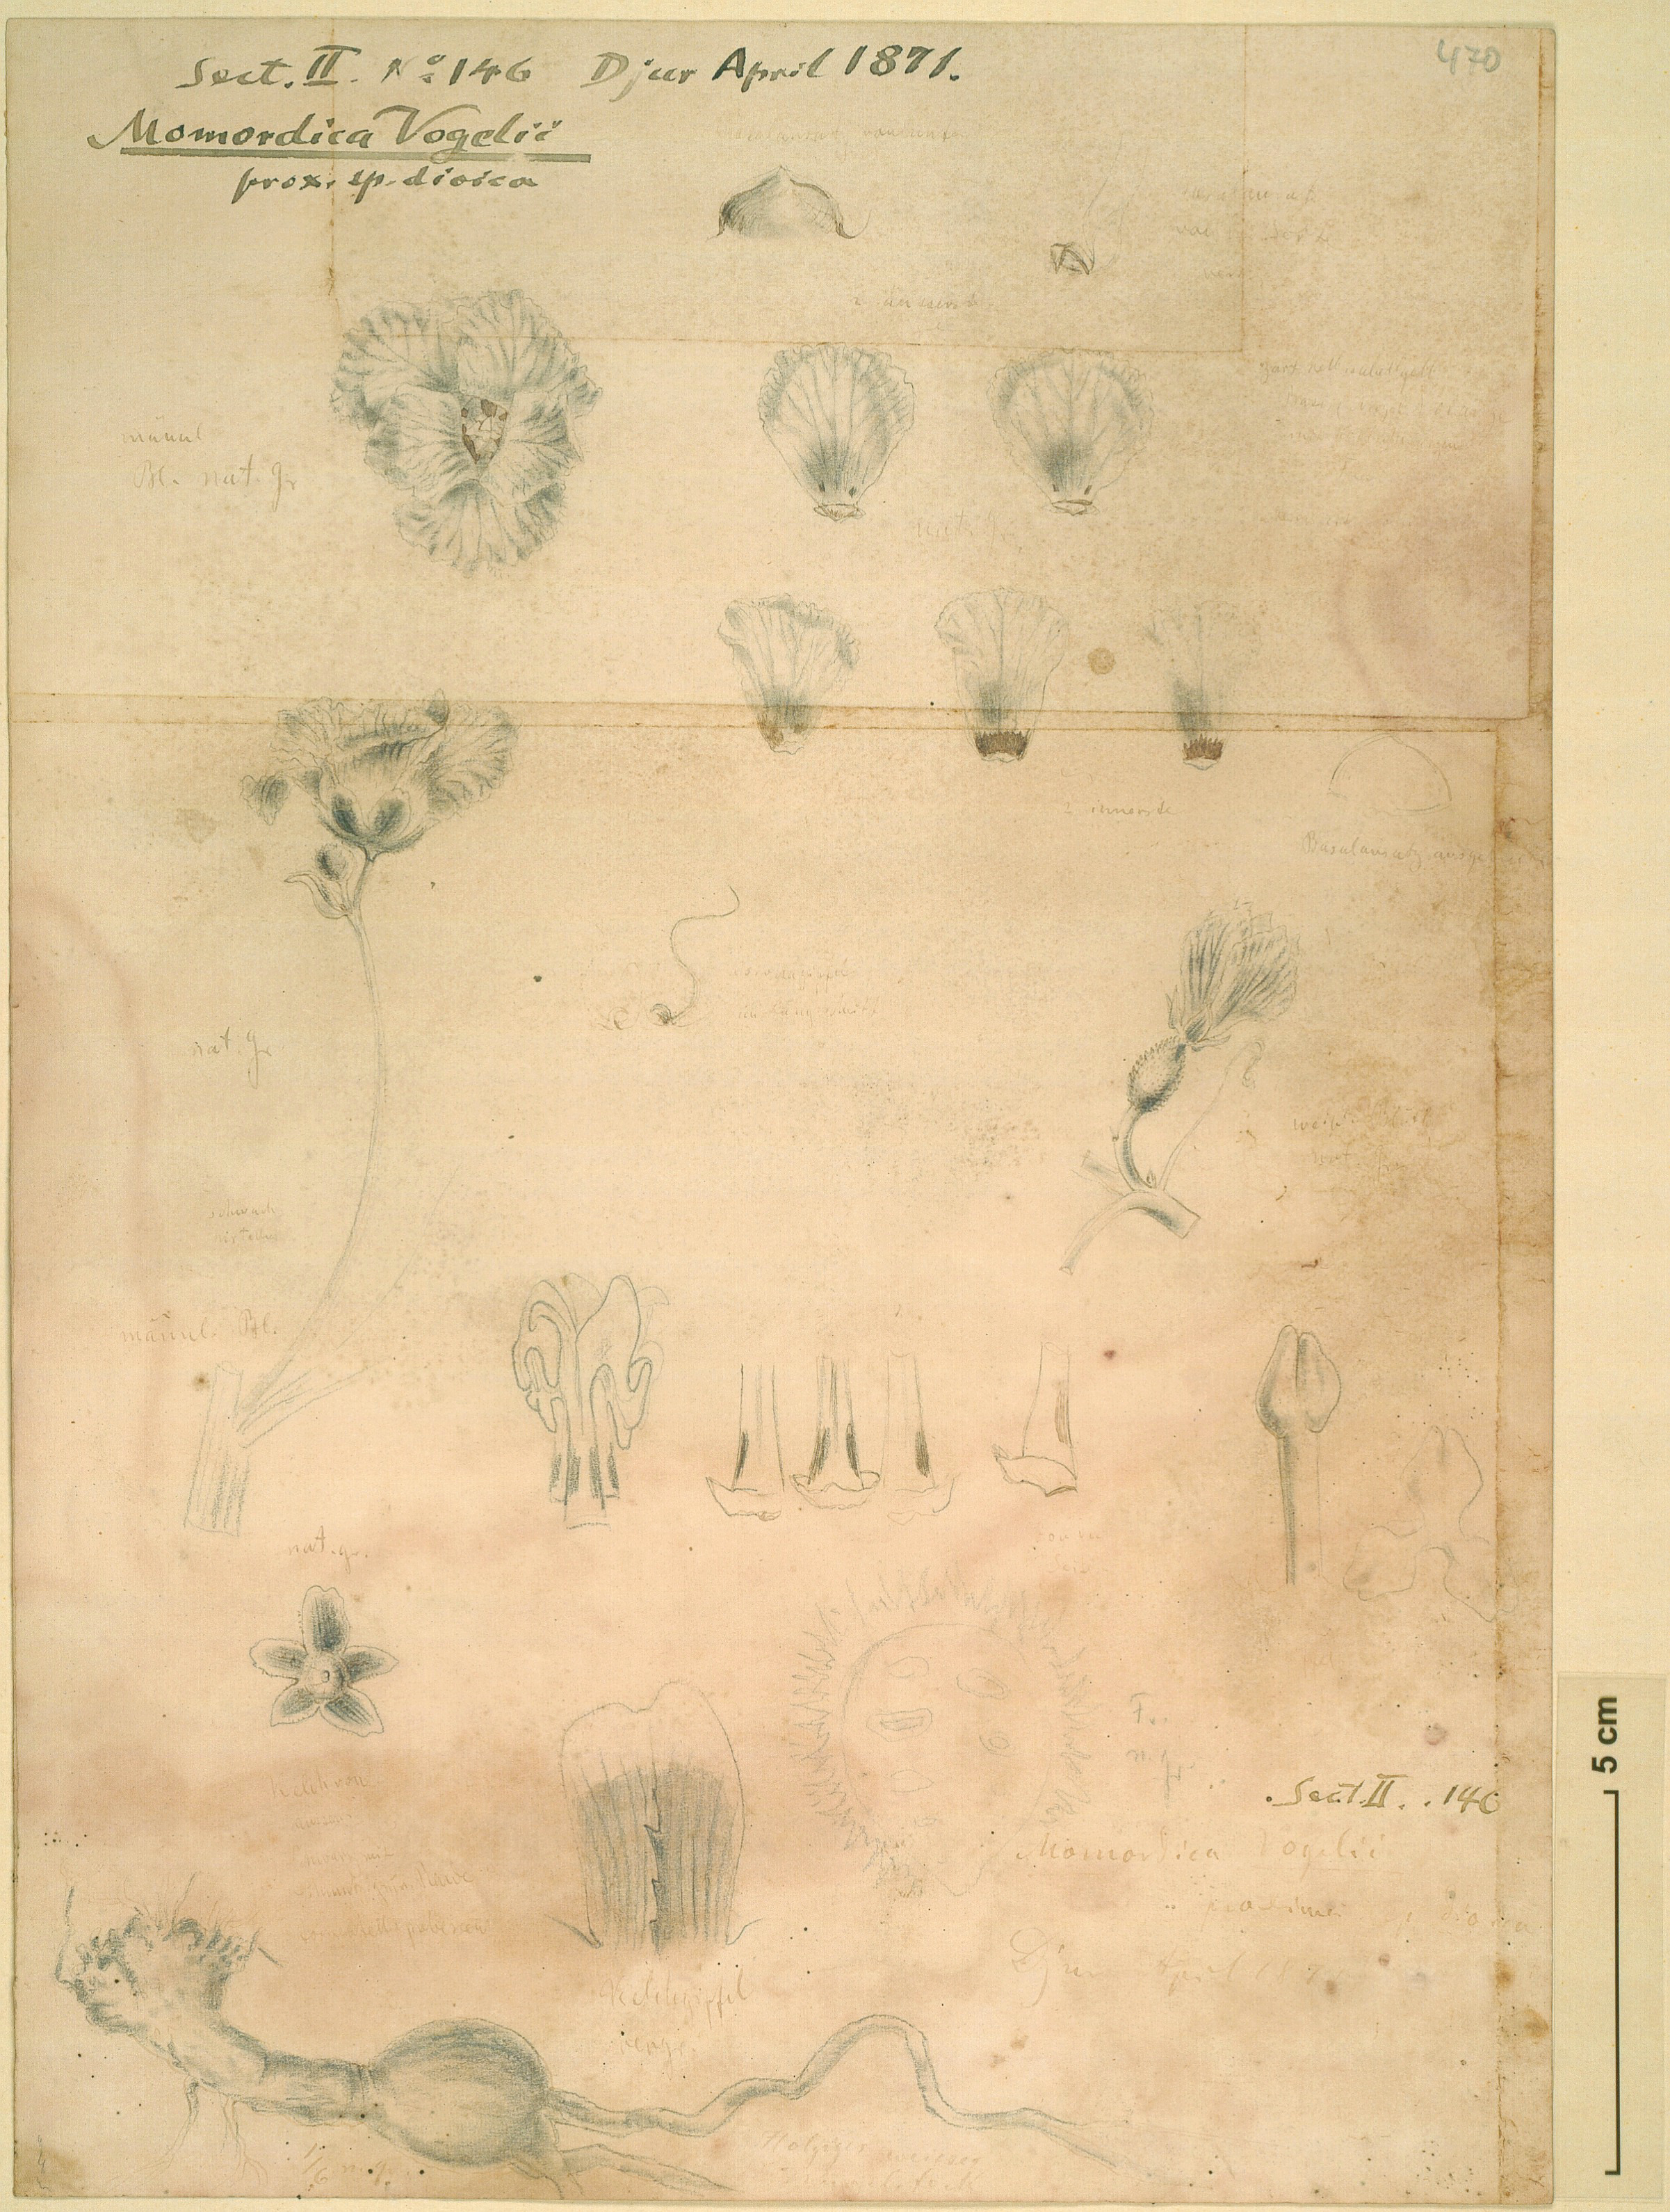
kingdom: Plantae
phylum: Tracheophyta
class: Magnoliopsida
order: Cucurbitales
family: Cucurbitaceae
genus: Momordica
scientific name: Momordica foetida
